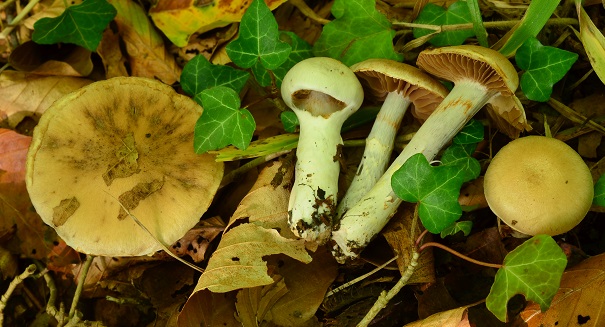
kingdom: Fungi
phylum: Basidiomycota
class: Agaricomycetes
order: Agaricales
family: Cortinariaceae
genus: Cortinarius
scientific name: Cortinarius subpulchrifolius
